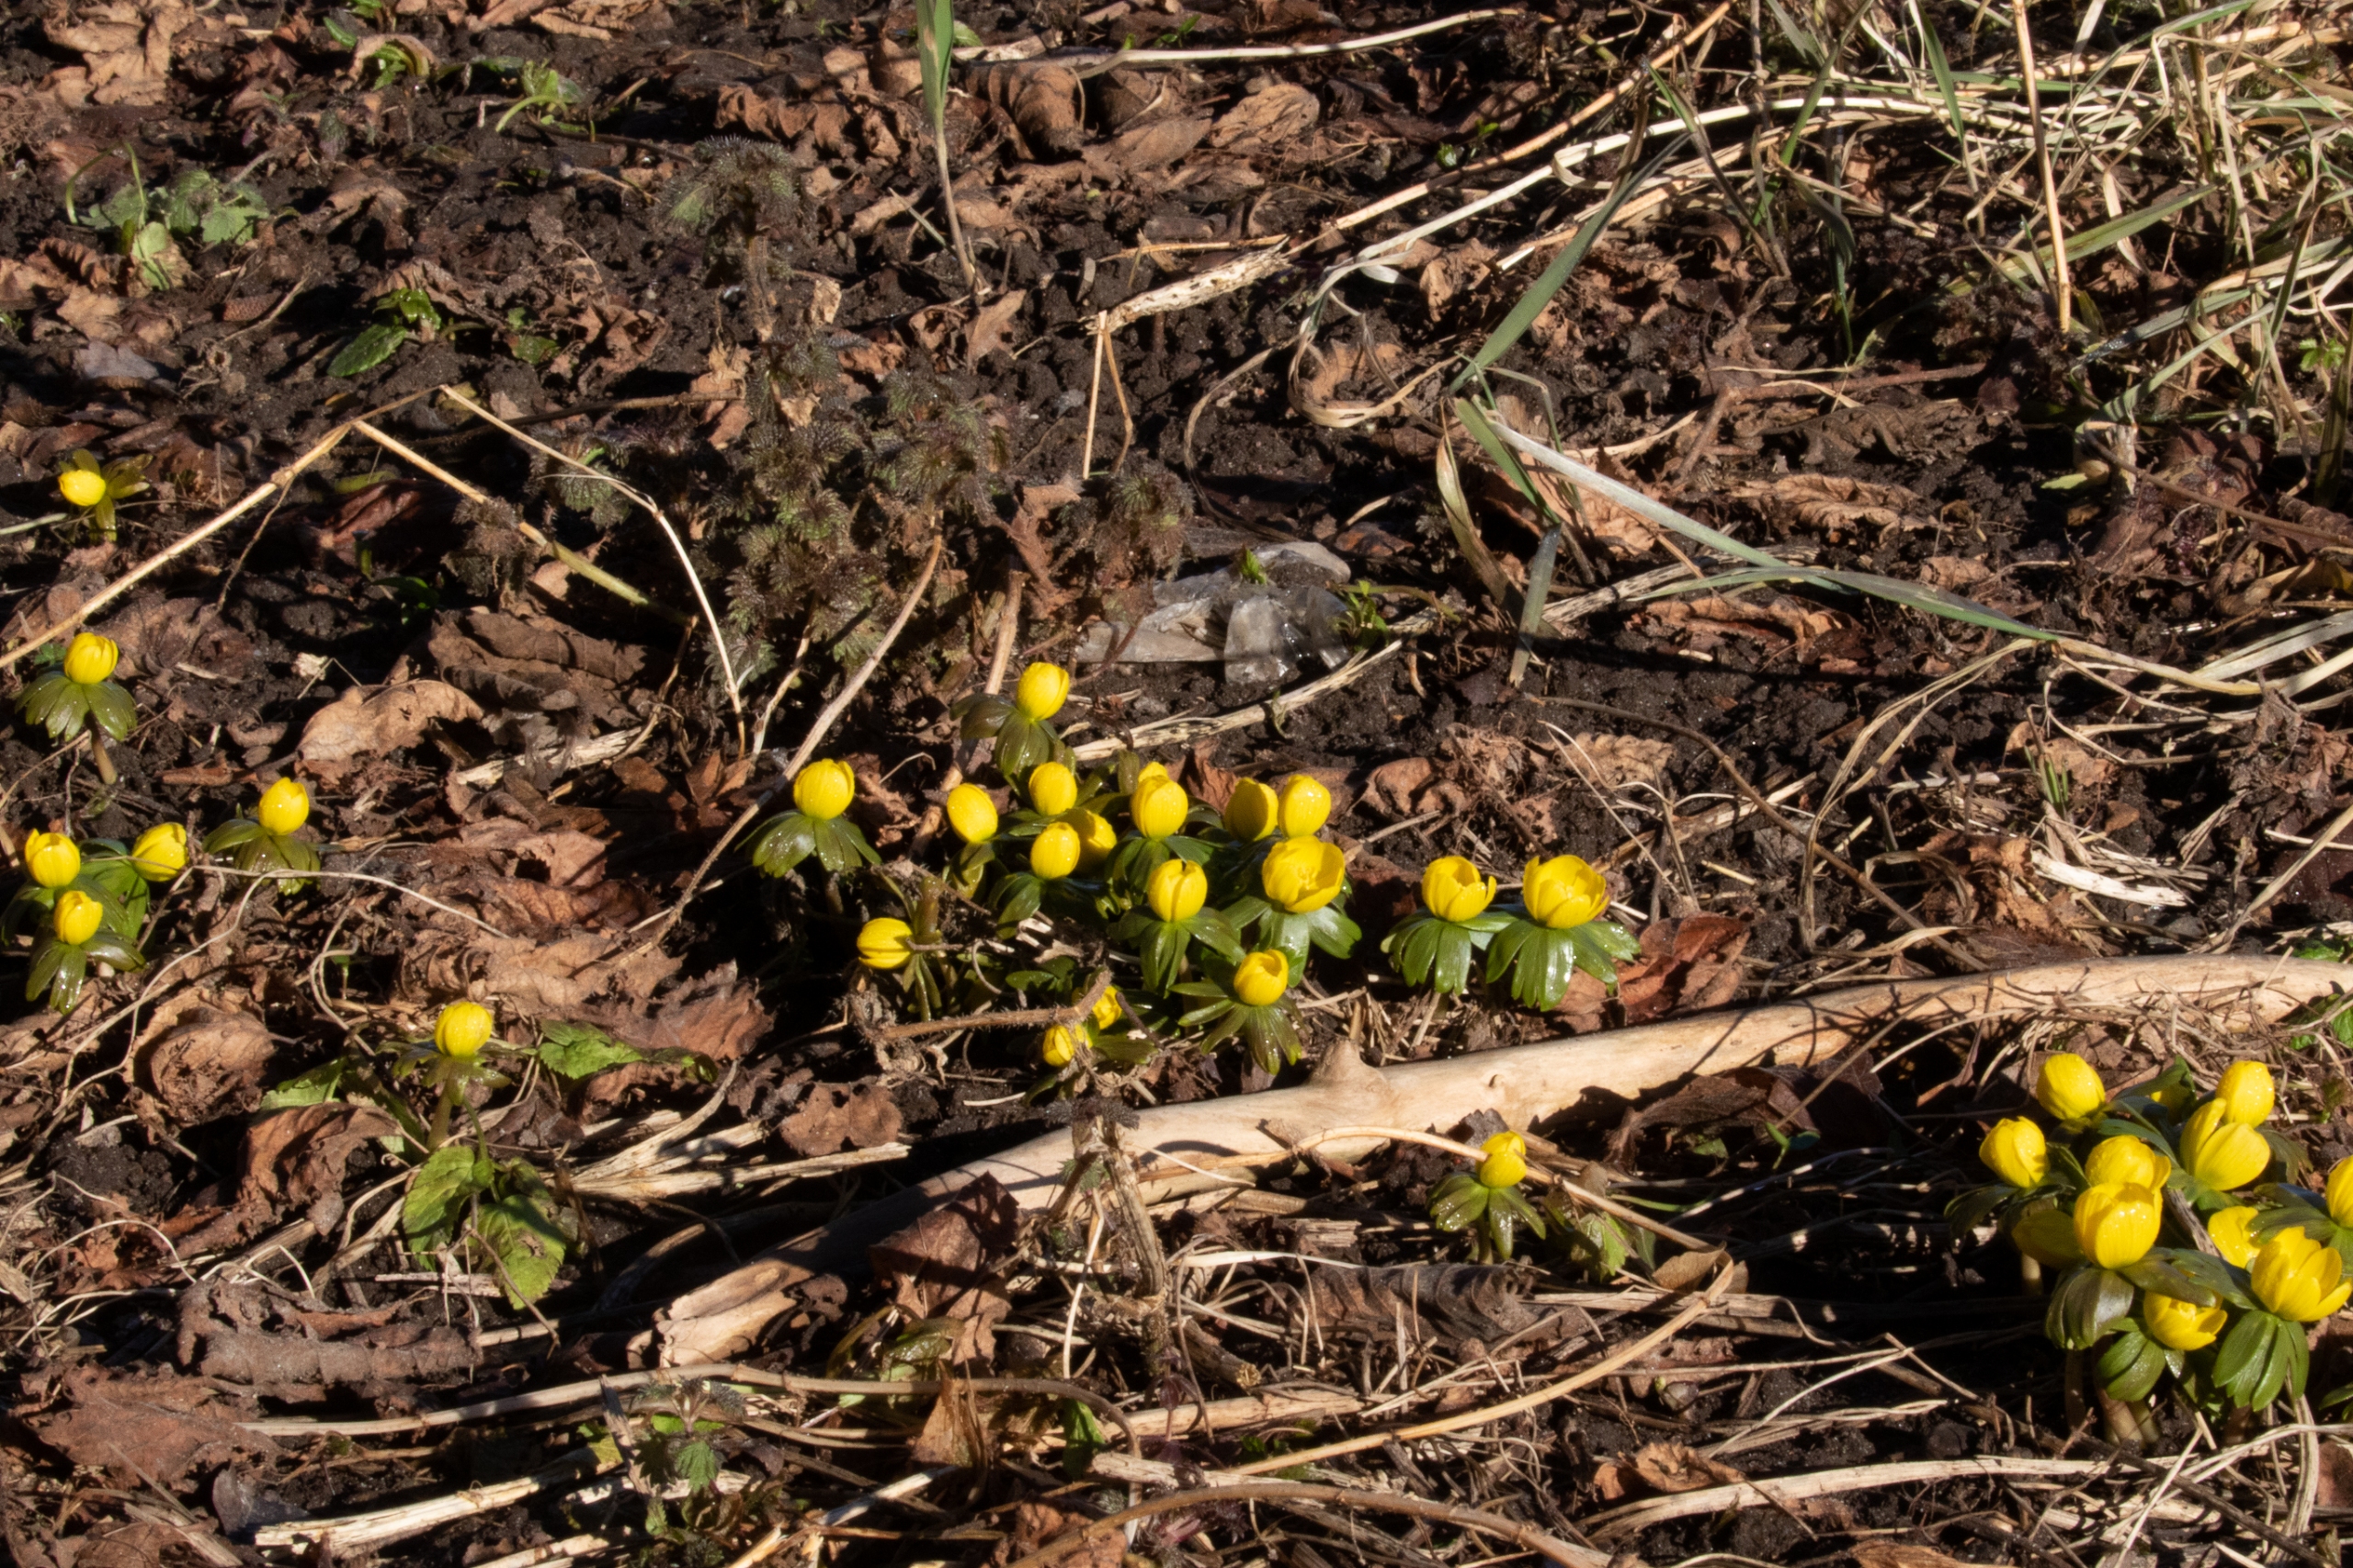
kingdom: Plantae
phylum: Tracheophyta
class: Magnoliopsida
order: Ranunculales
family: Ranunculaceae
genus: Eranthis
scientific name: Eranthis hyemalis
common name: Erantis
